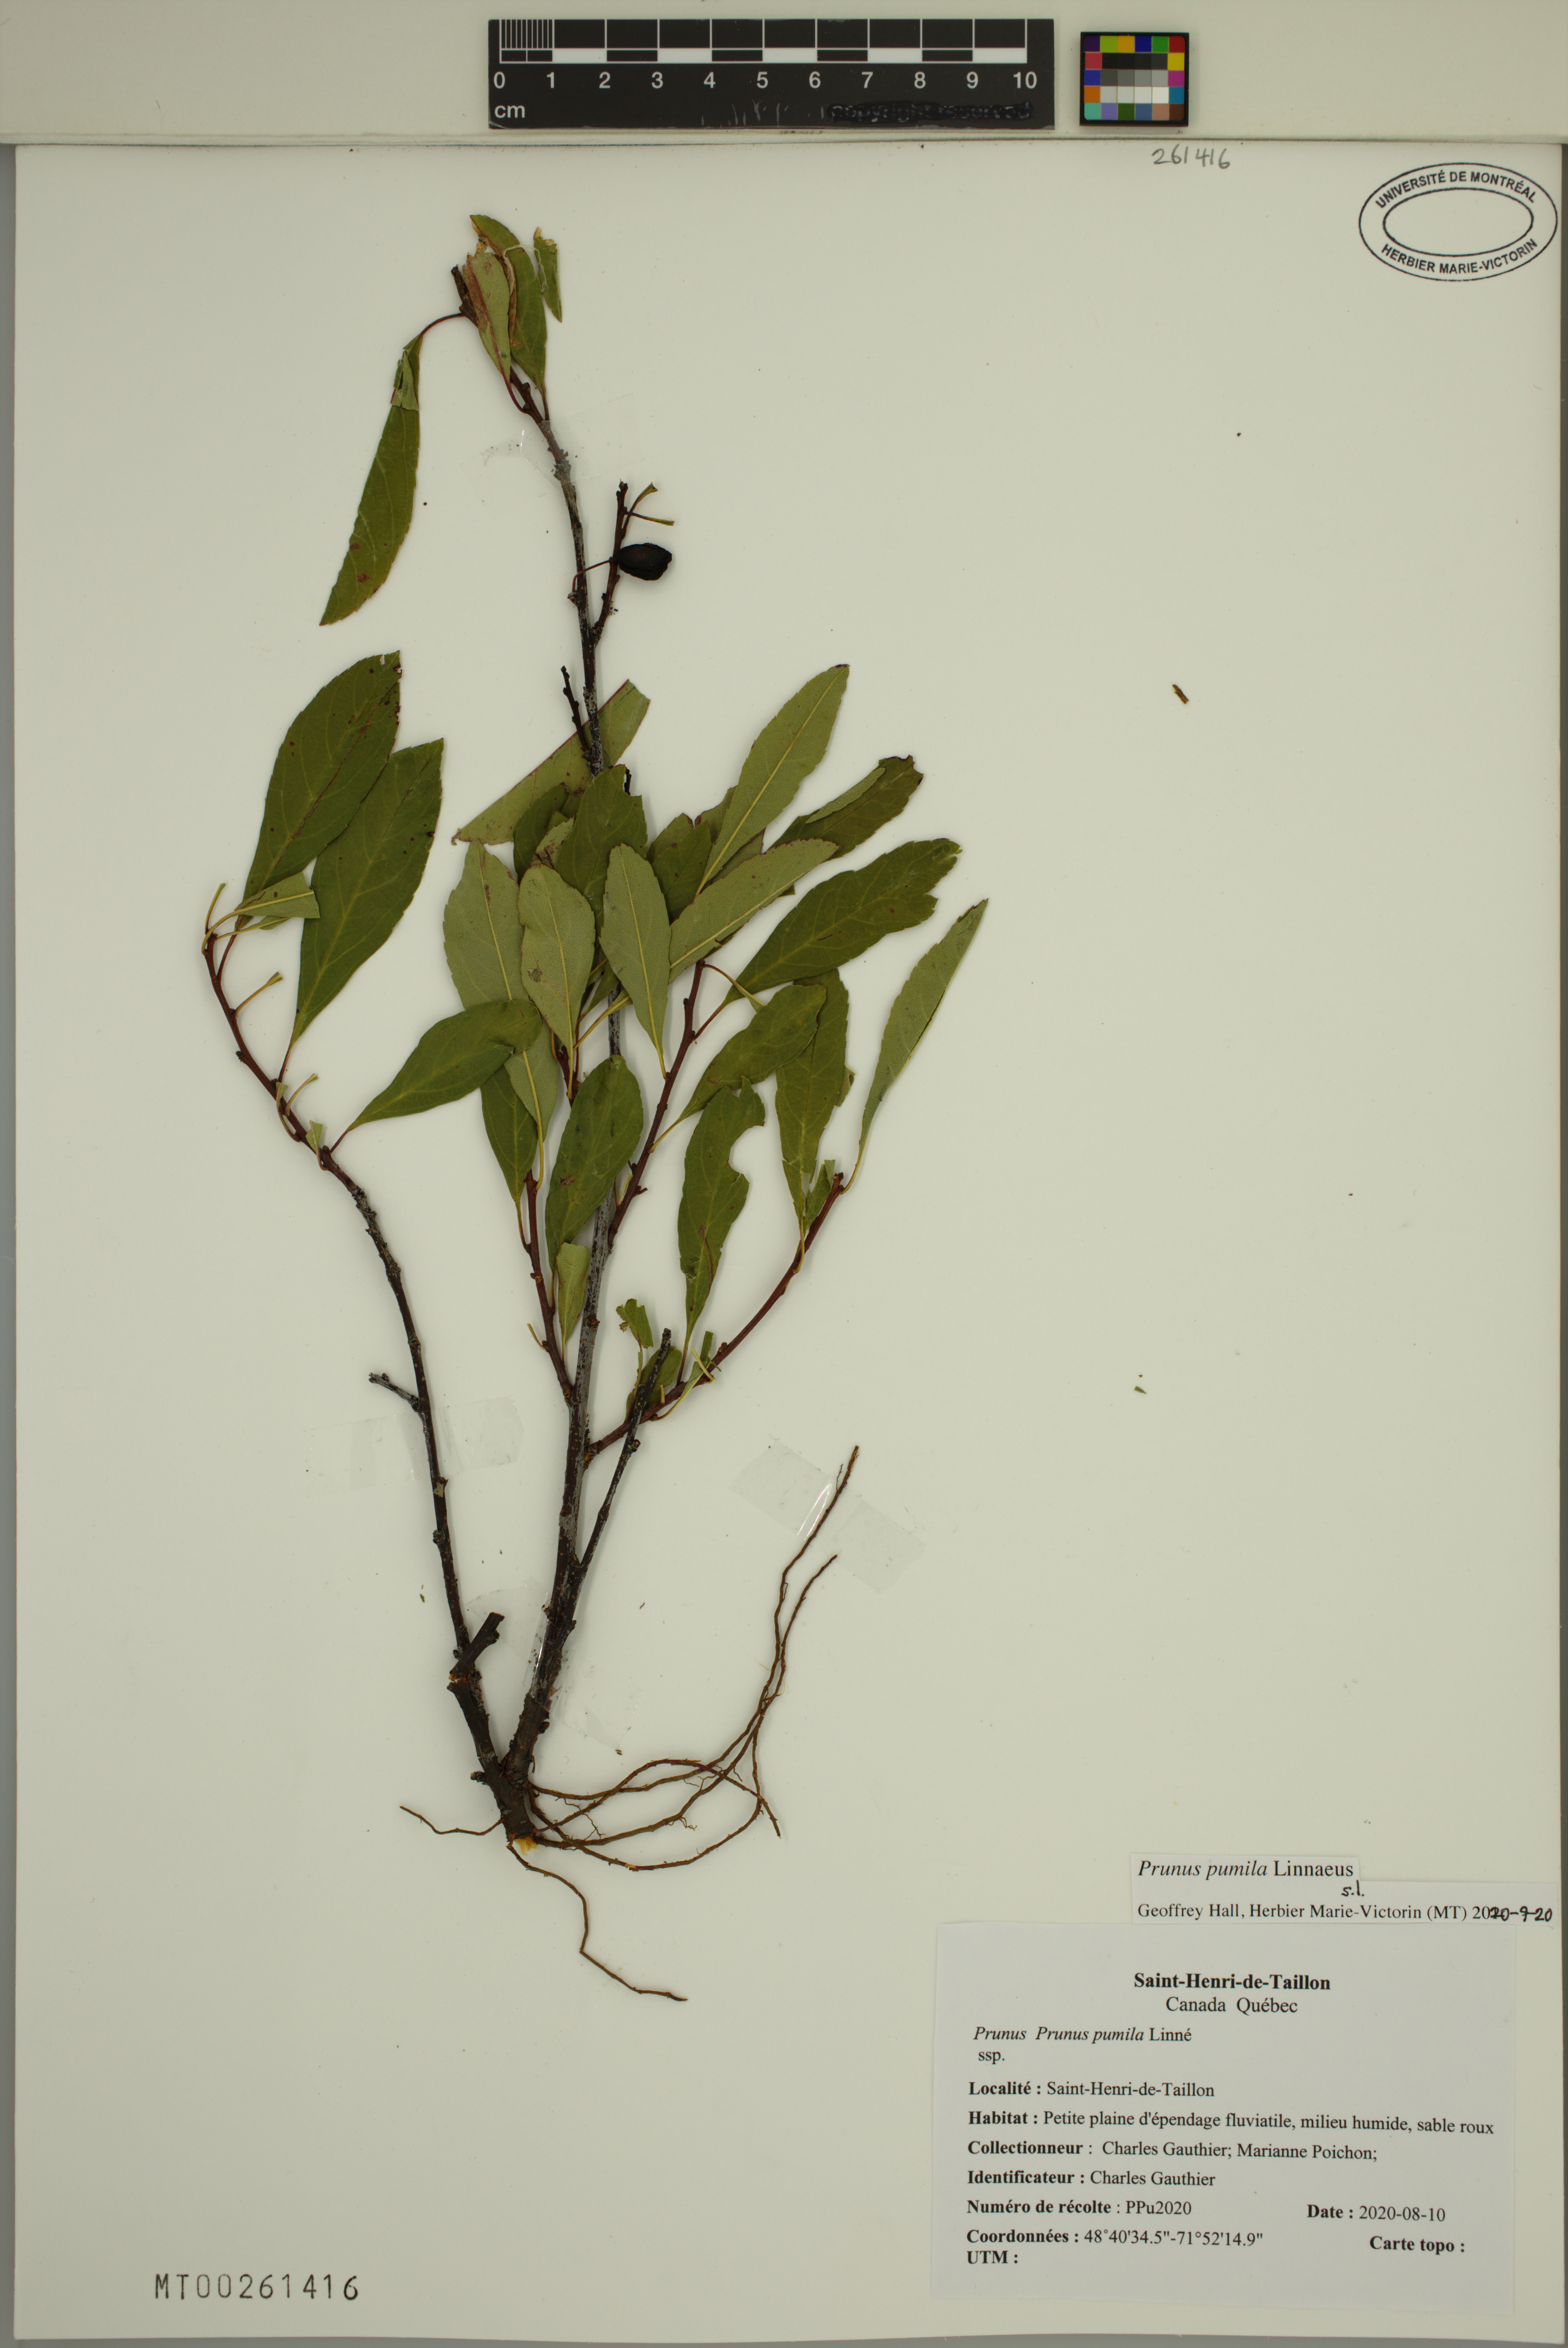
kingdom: Plantae
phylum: Tracheophyta
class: Magnoliopsida
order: Rosales
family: Rosaceae
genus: Prunus
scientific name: Prunus pumila
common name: Dwarf cherry
